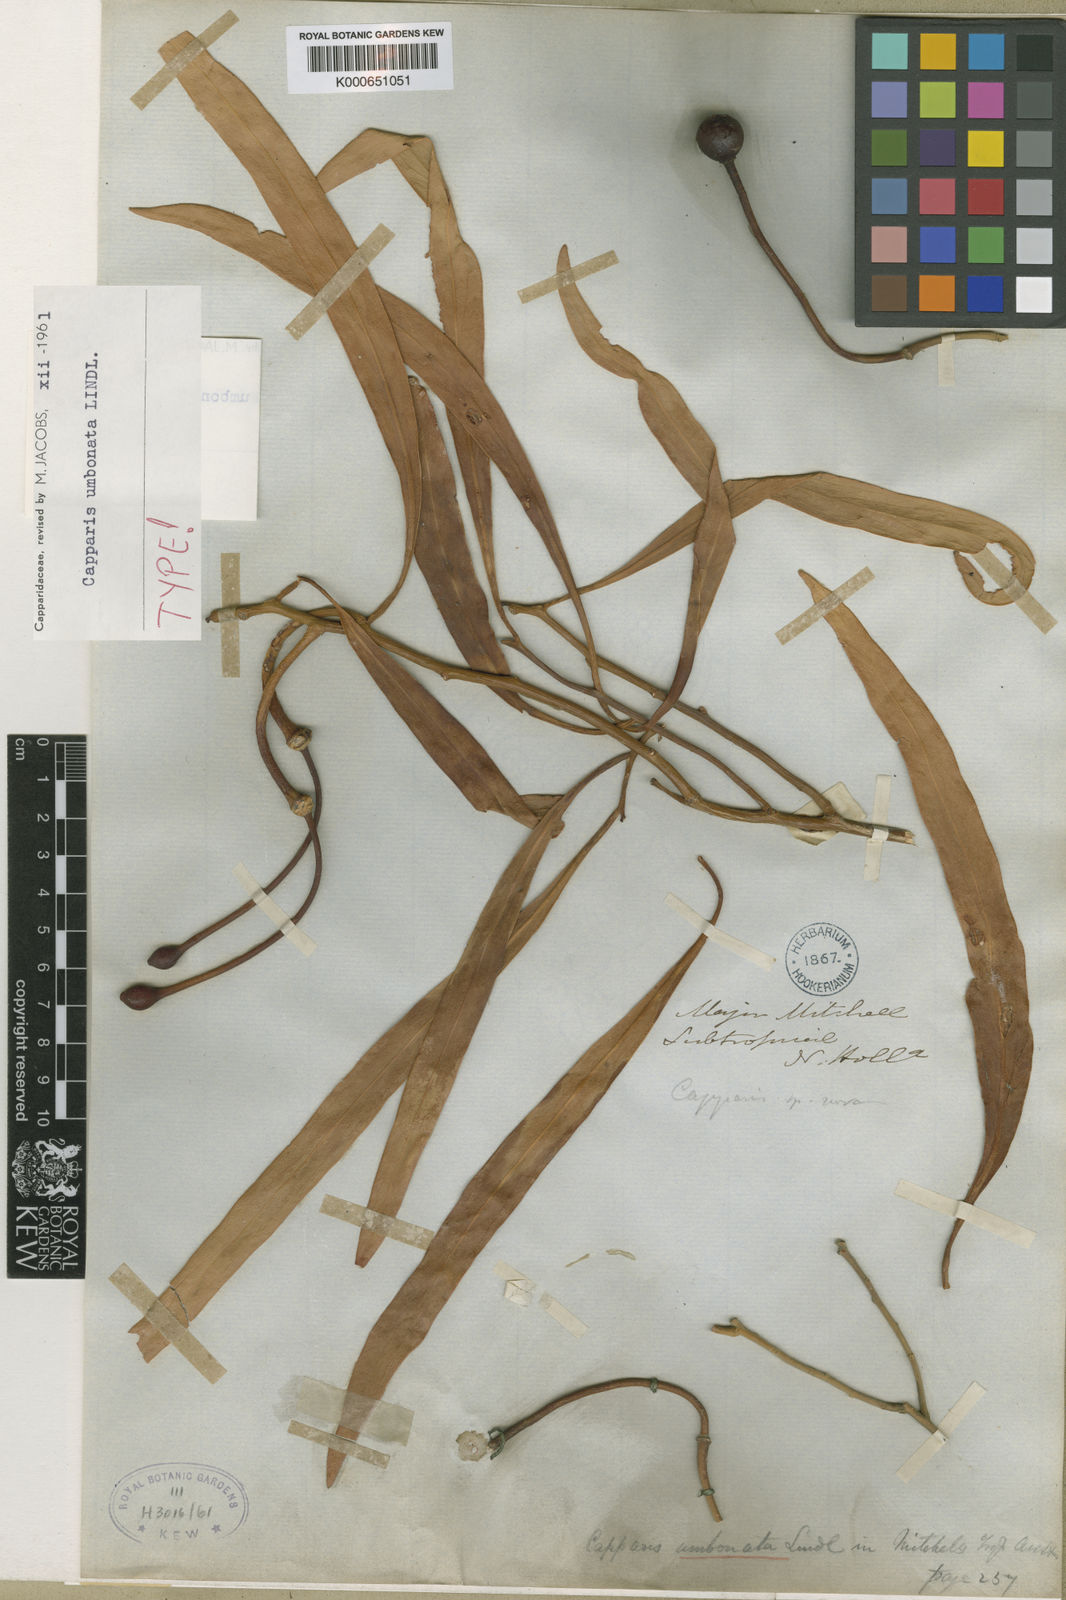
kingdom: Plantae
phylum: Tracheophyta
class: Magnoliopsida
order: Brassicales
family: Capparaceae
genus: Capparis
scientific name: Capparis umbonata
